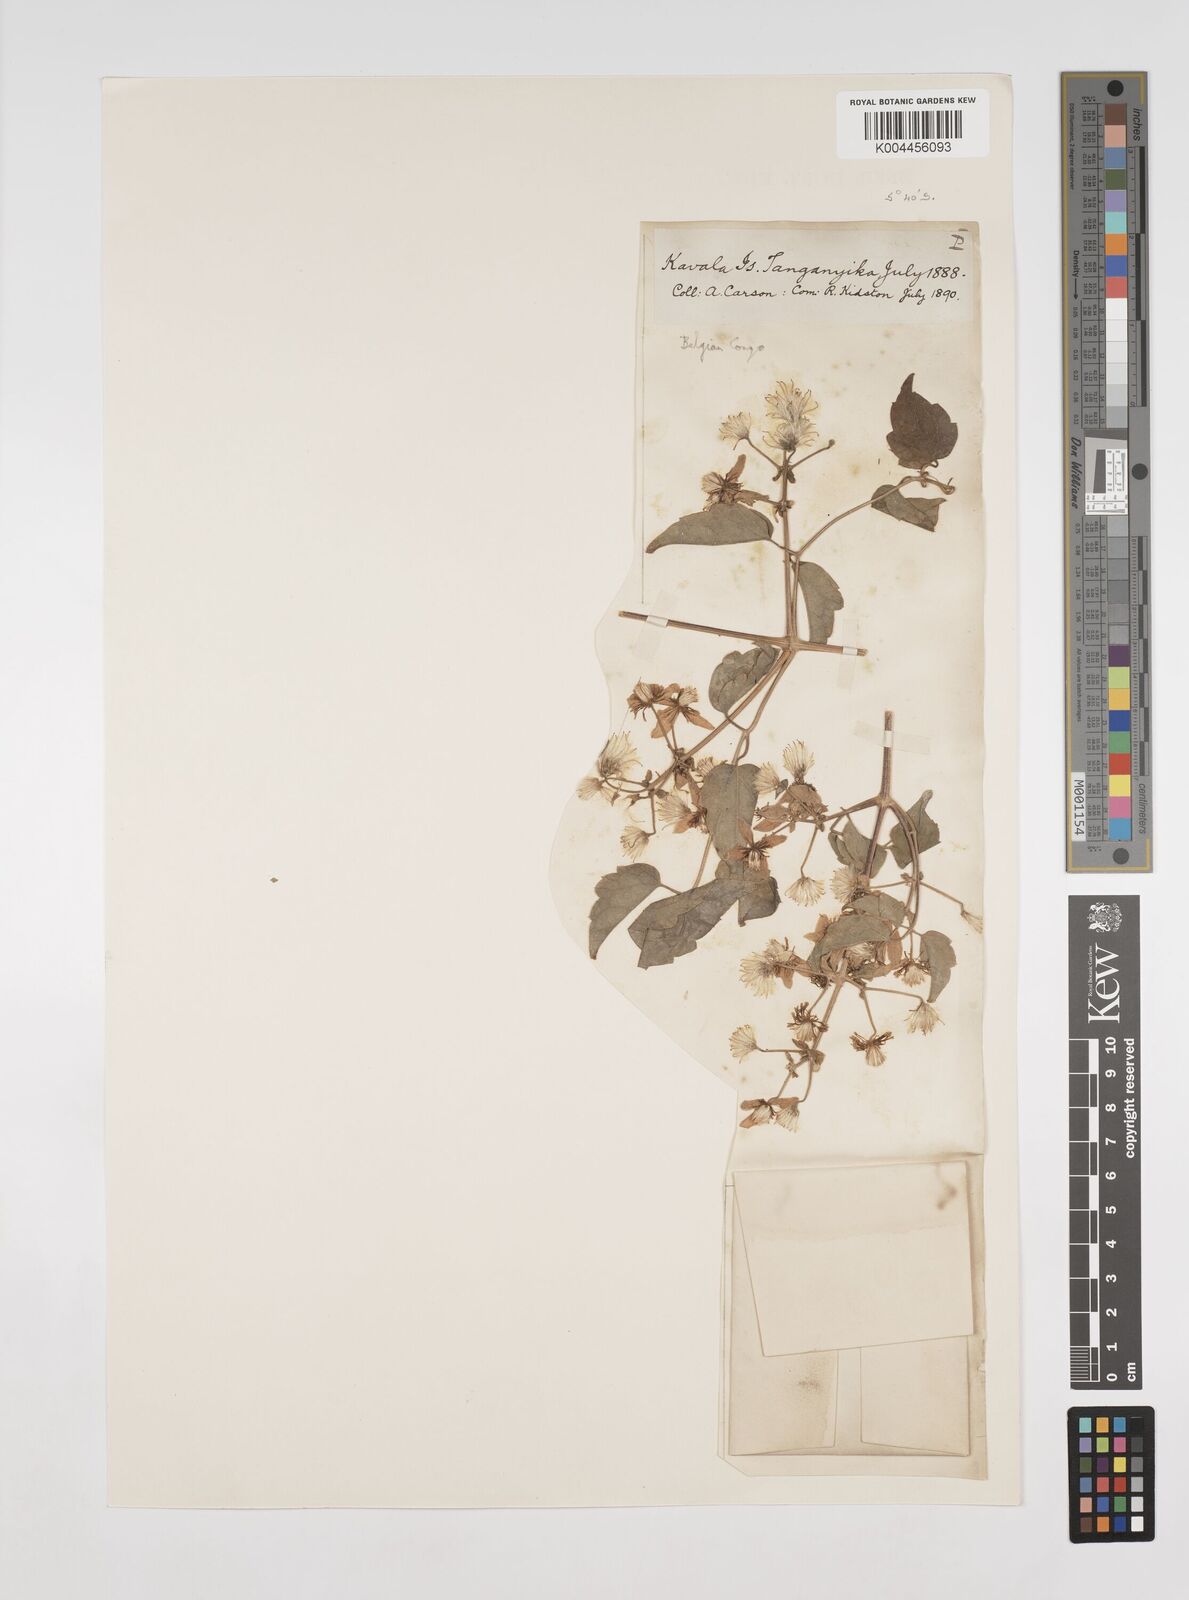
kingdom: Plantae
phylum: Tracheophyta
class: Magnoliopsida
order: Ranunculales
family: Ranunculaceae
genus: Clematis
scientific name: Clematis welwitschii
